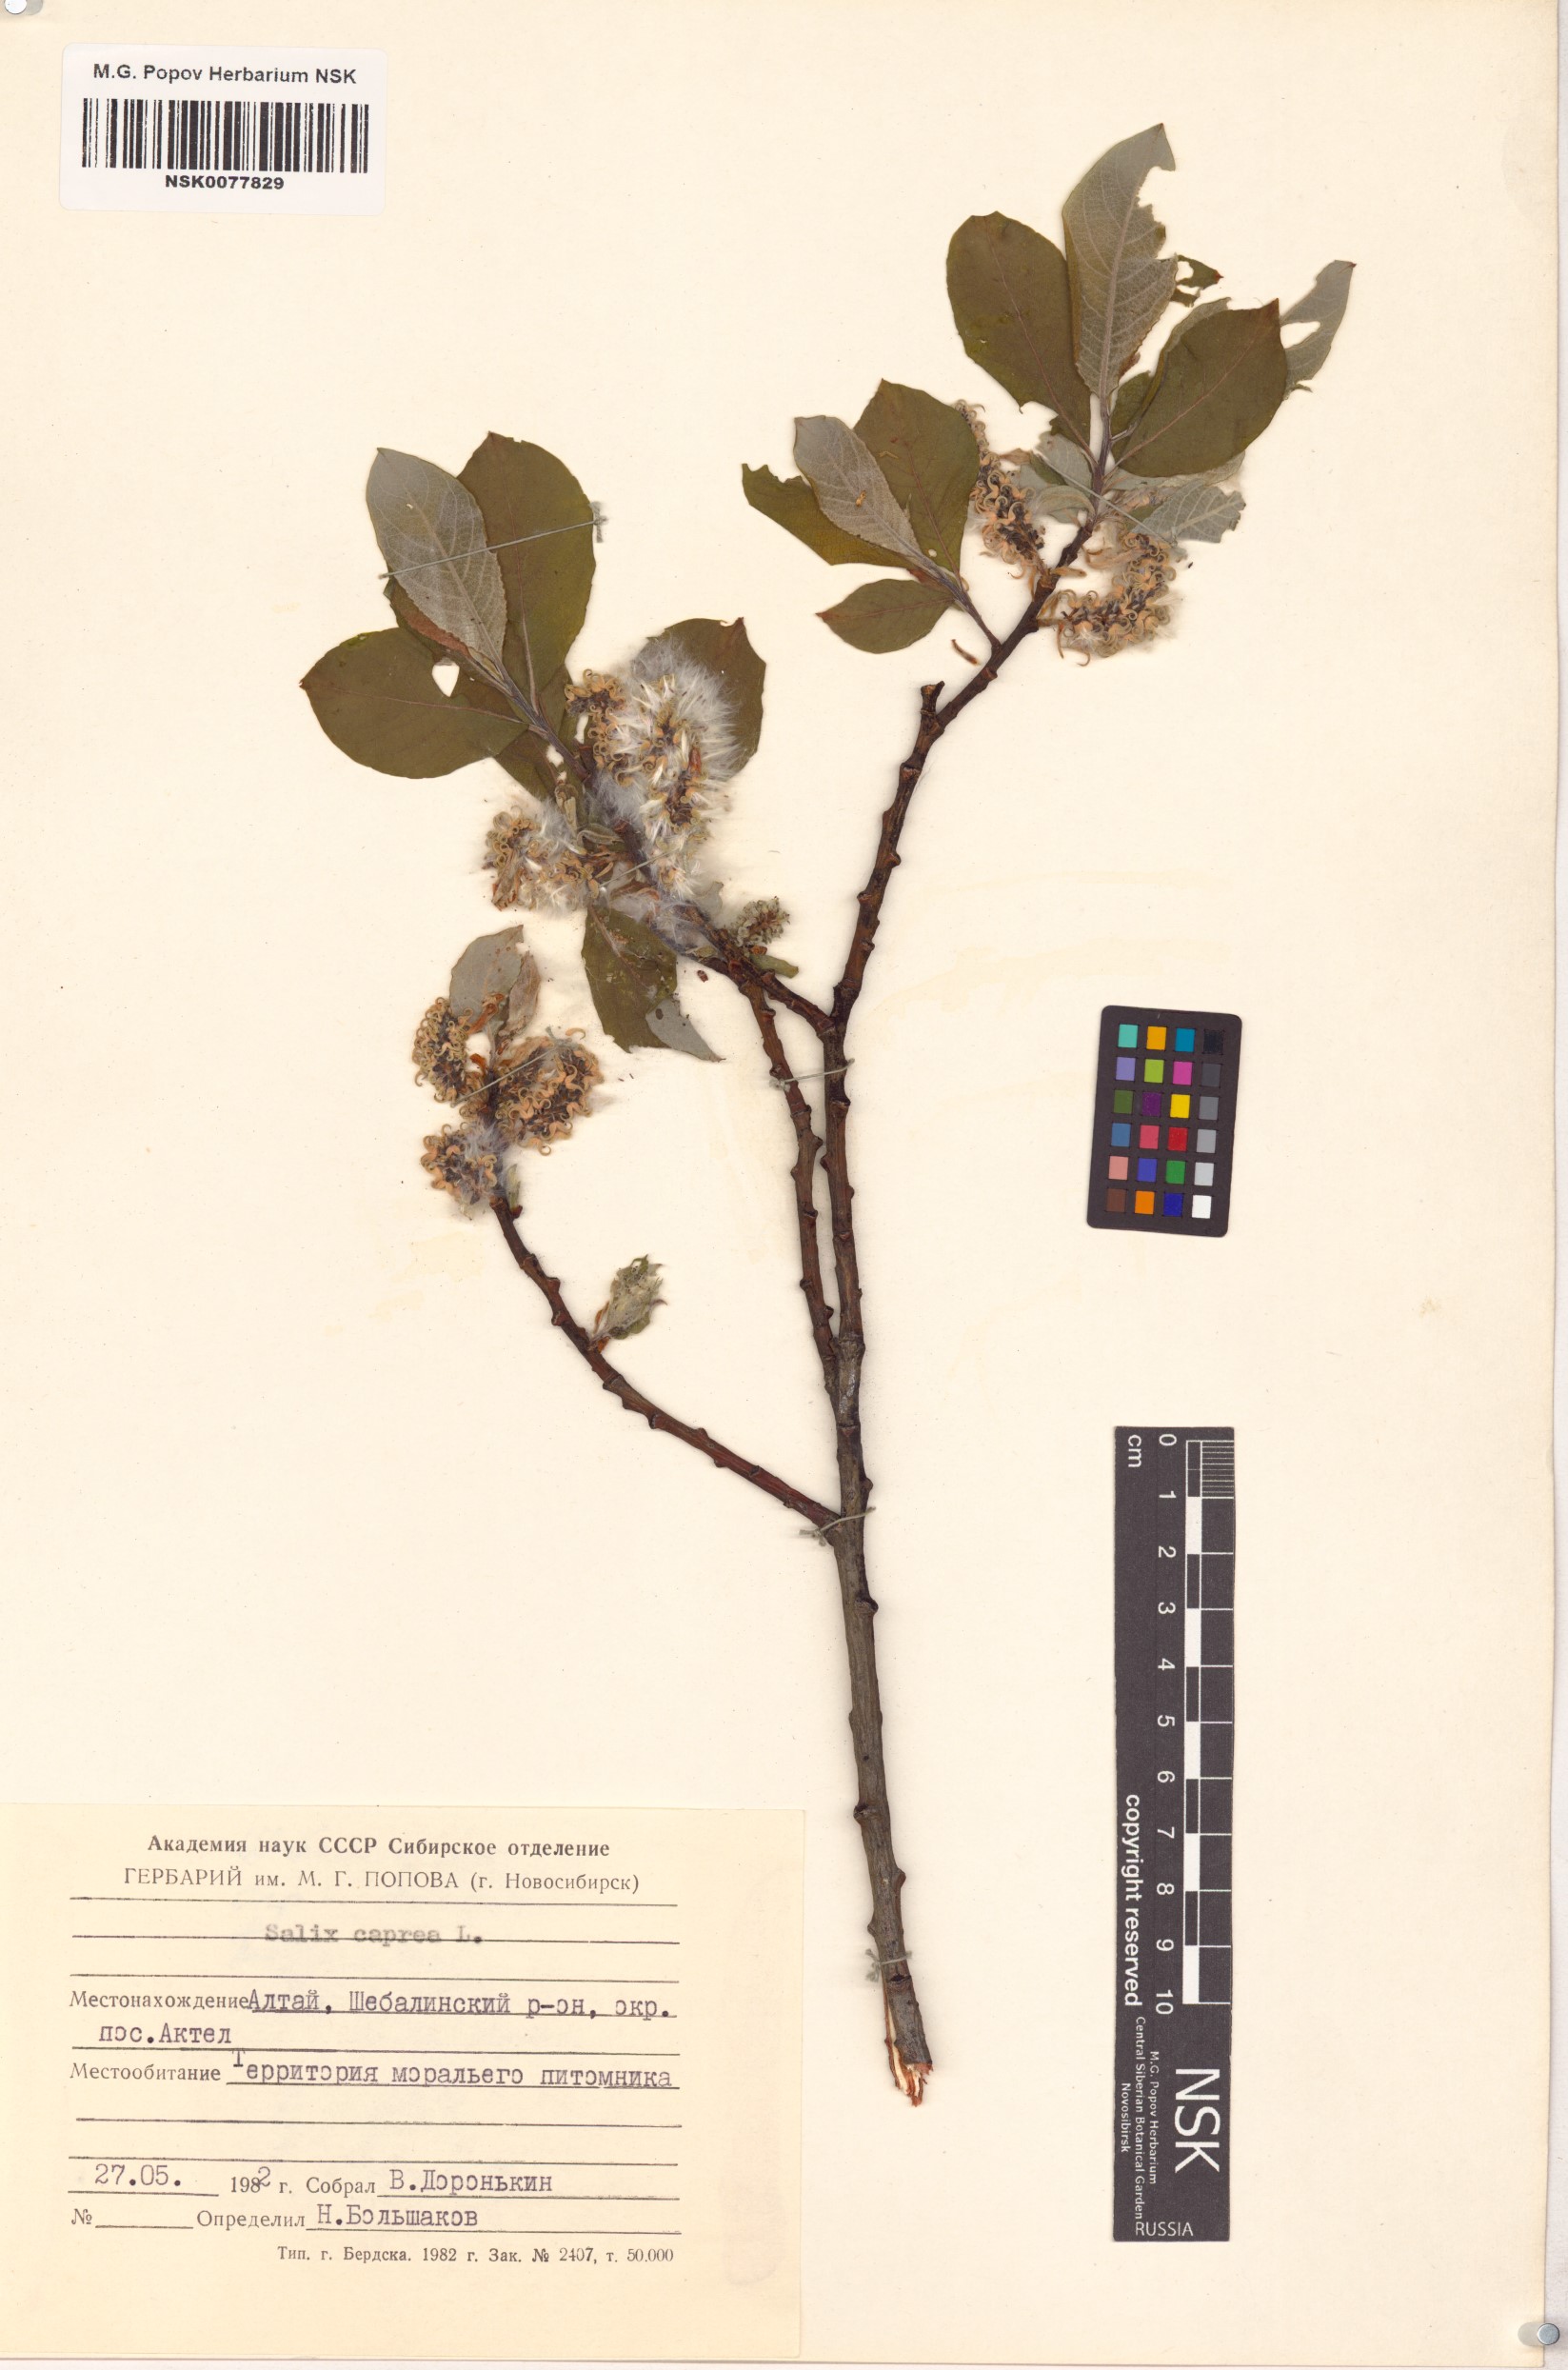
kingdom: Plantae
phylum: Tracheophyta
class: Magnoliopsida
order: Malpighiales
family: Salicaceae
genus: Salix
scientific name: Salix caprea
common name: Goat willow
